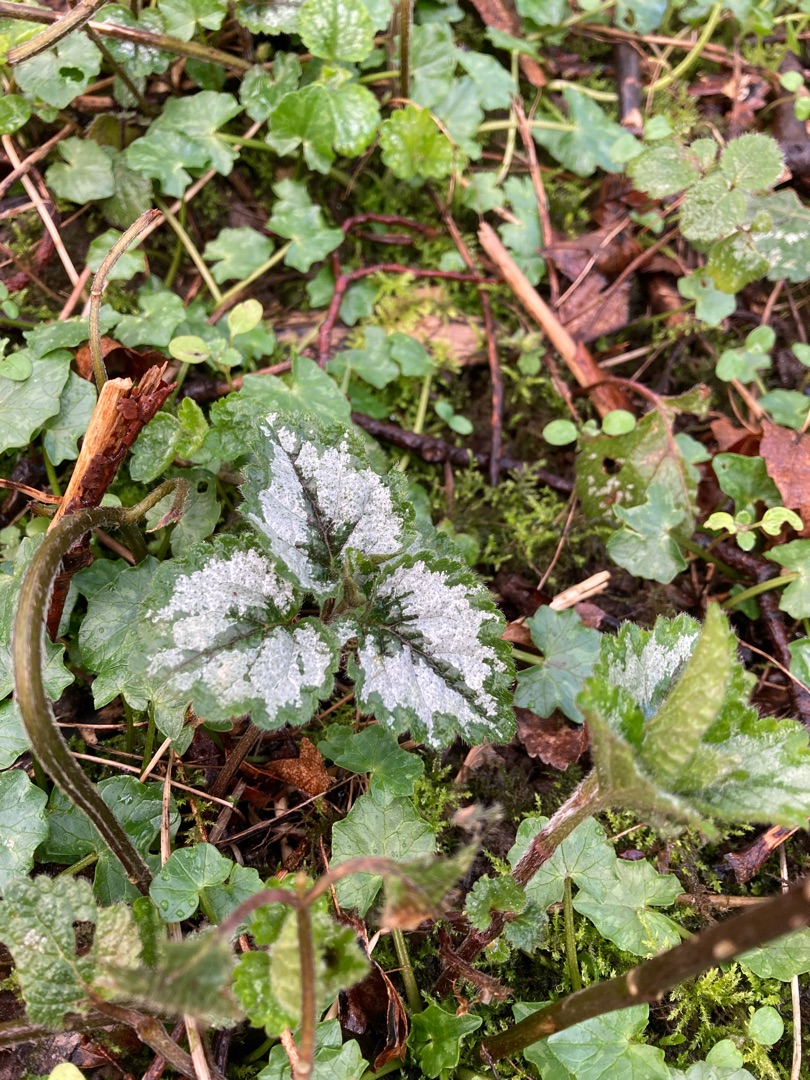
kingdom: Plantae
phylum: Tracheophyta
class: Magnoliopsida
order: Lamiales
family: Lamiaceae
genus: Lamium
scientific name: Lamium galeobdolon
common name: Have-guldnælde
